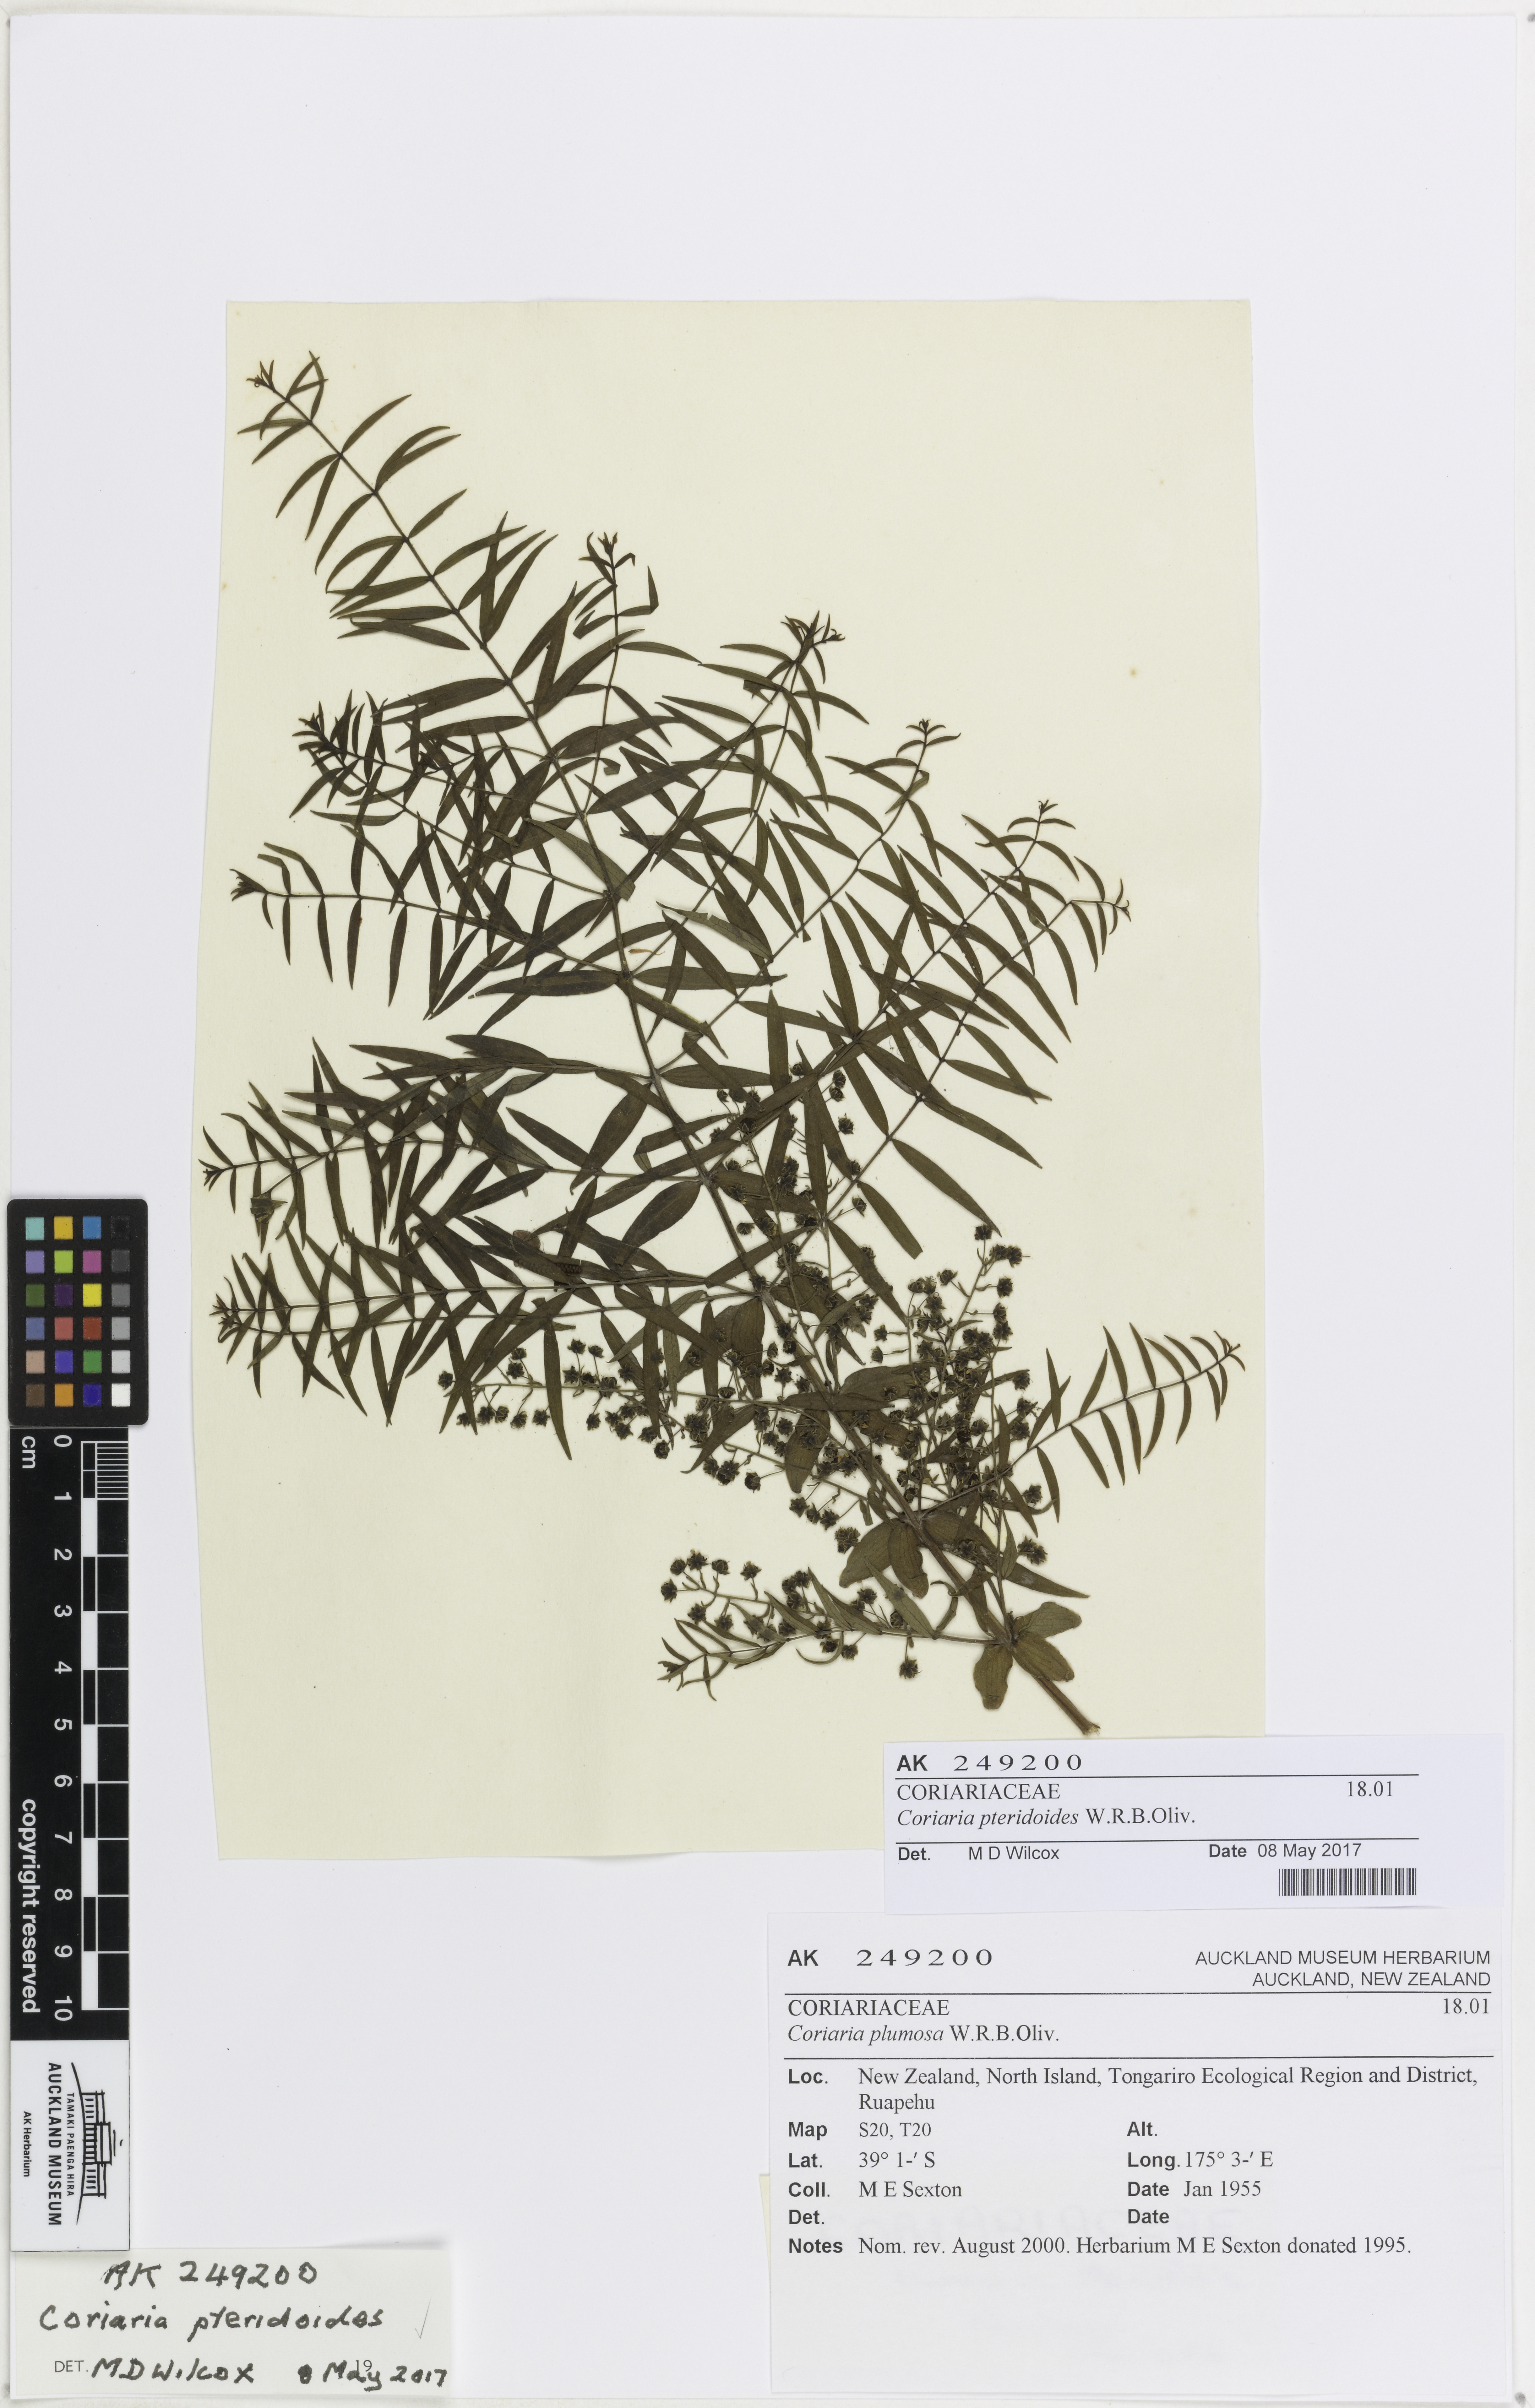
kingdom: Plantae
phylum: Tracheophyta
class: Magnoliopsida
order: Cucurbitales
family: Coriariaceae
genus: Coriaria
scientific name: Coriaria pteridoides
